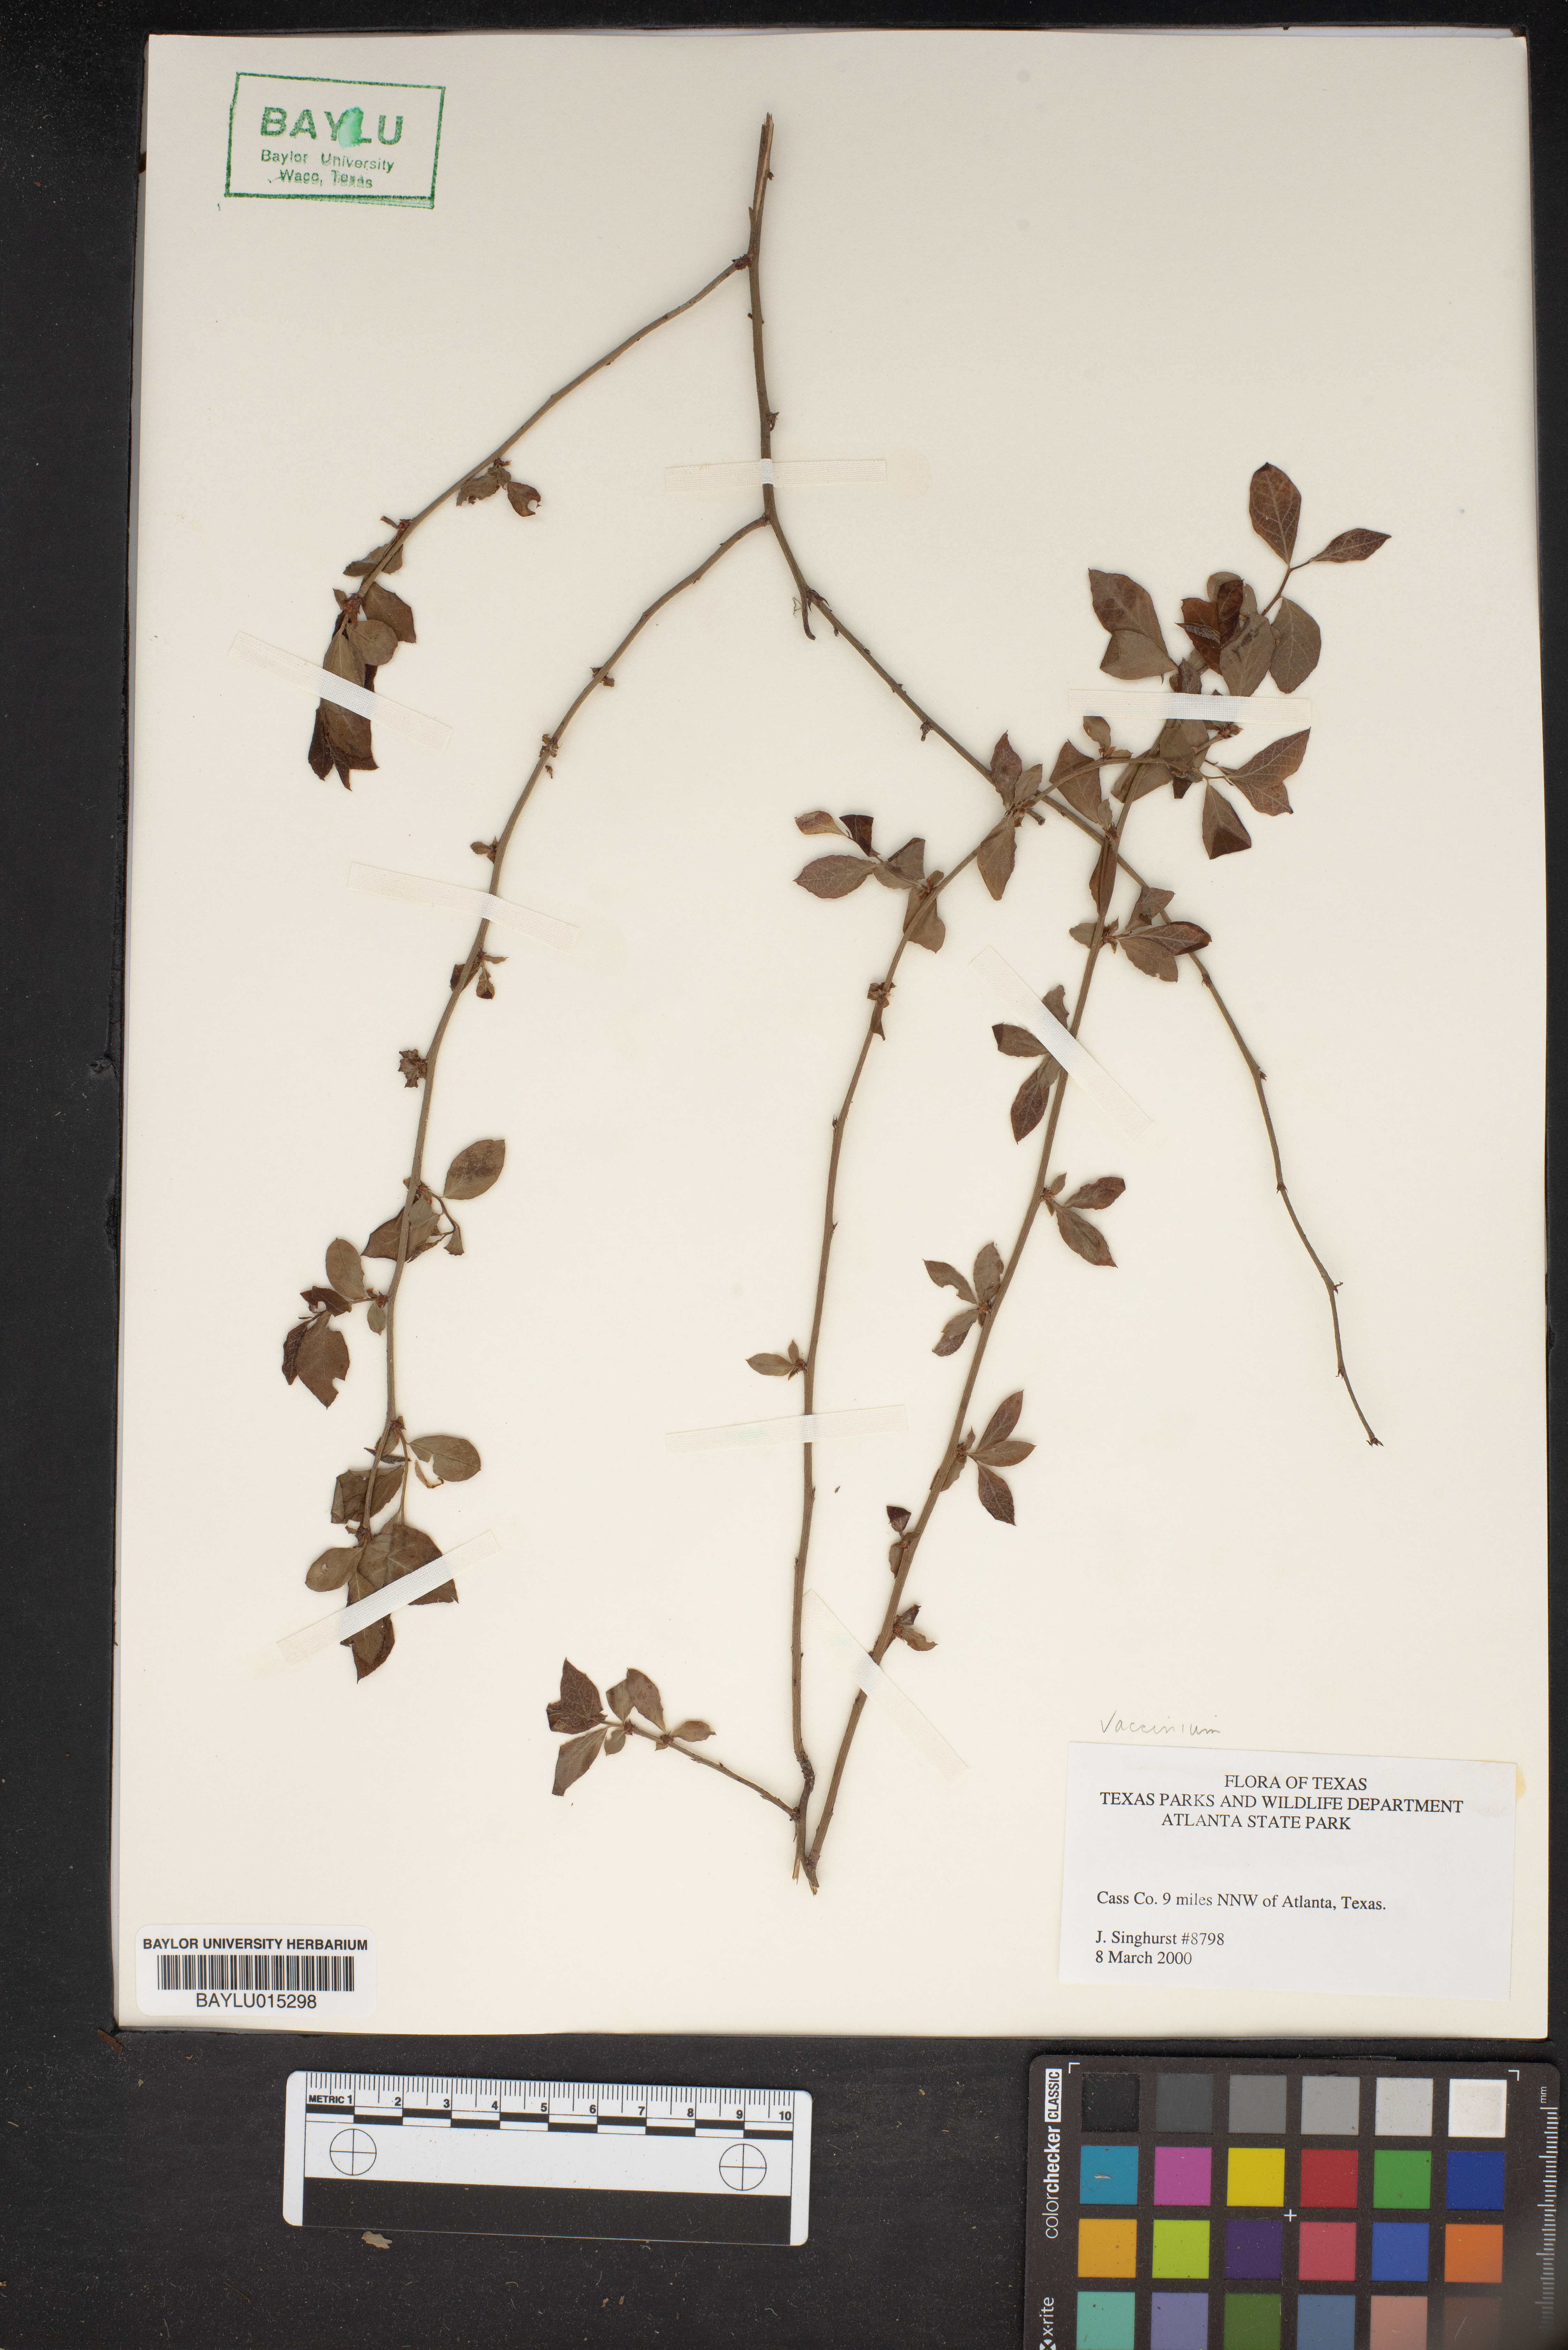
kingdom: Plantae
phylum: Tracheophyta
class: Magnoliopsida
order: Ericales
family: Ericaceae
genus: Vaccinium
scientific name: Vaccinium
